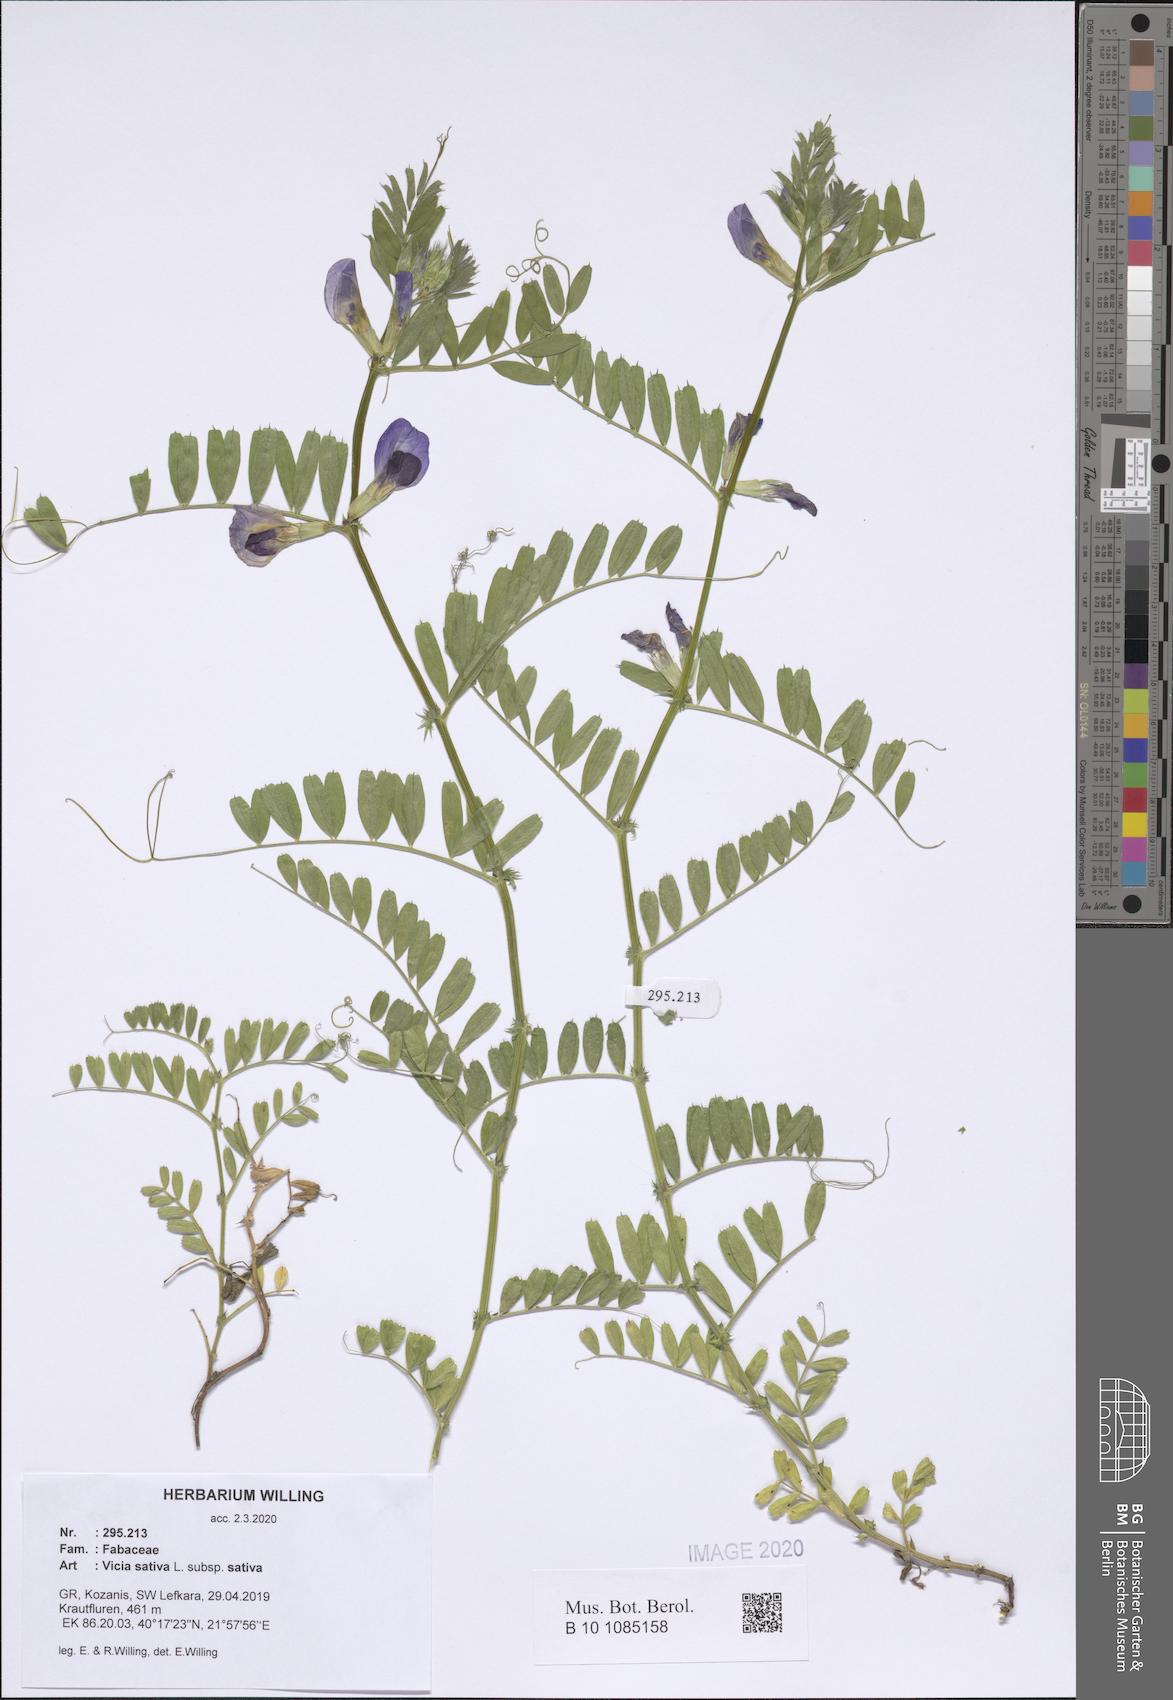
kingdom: Plantae
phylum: Tracheophyta
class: Magnoliopsida
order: Fabales
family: Fabaceae
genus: Vicia
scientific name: Vicia sativa
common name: Garden vetch
